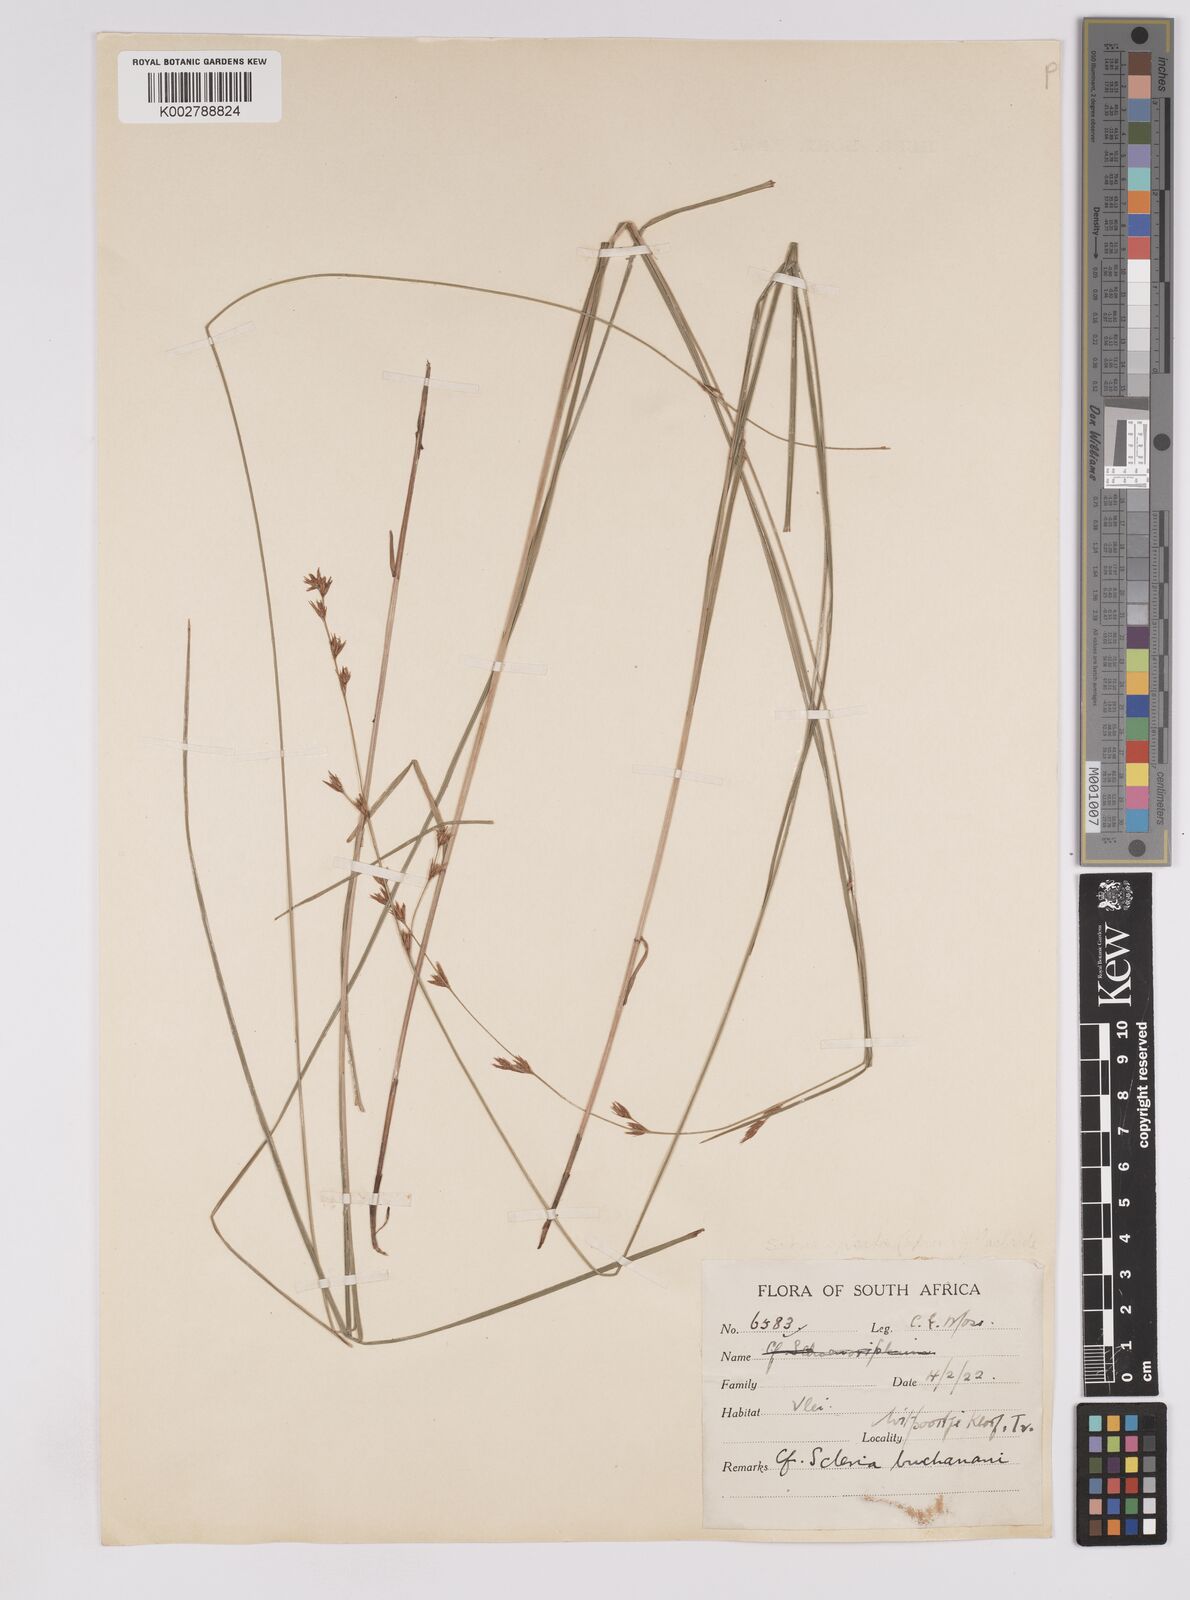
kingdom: Plantae
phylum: Tracheophyta
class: Liliopsida
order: Poales
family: Cyperaceae
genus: Scleria
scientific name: Scleria welwitschii
